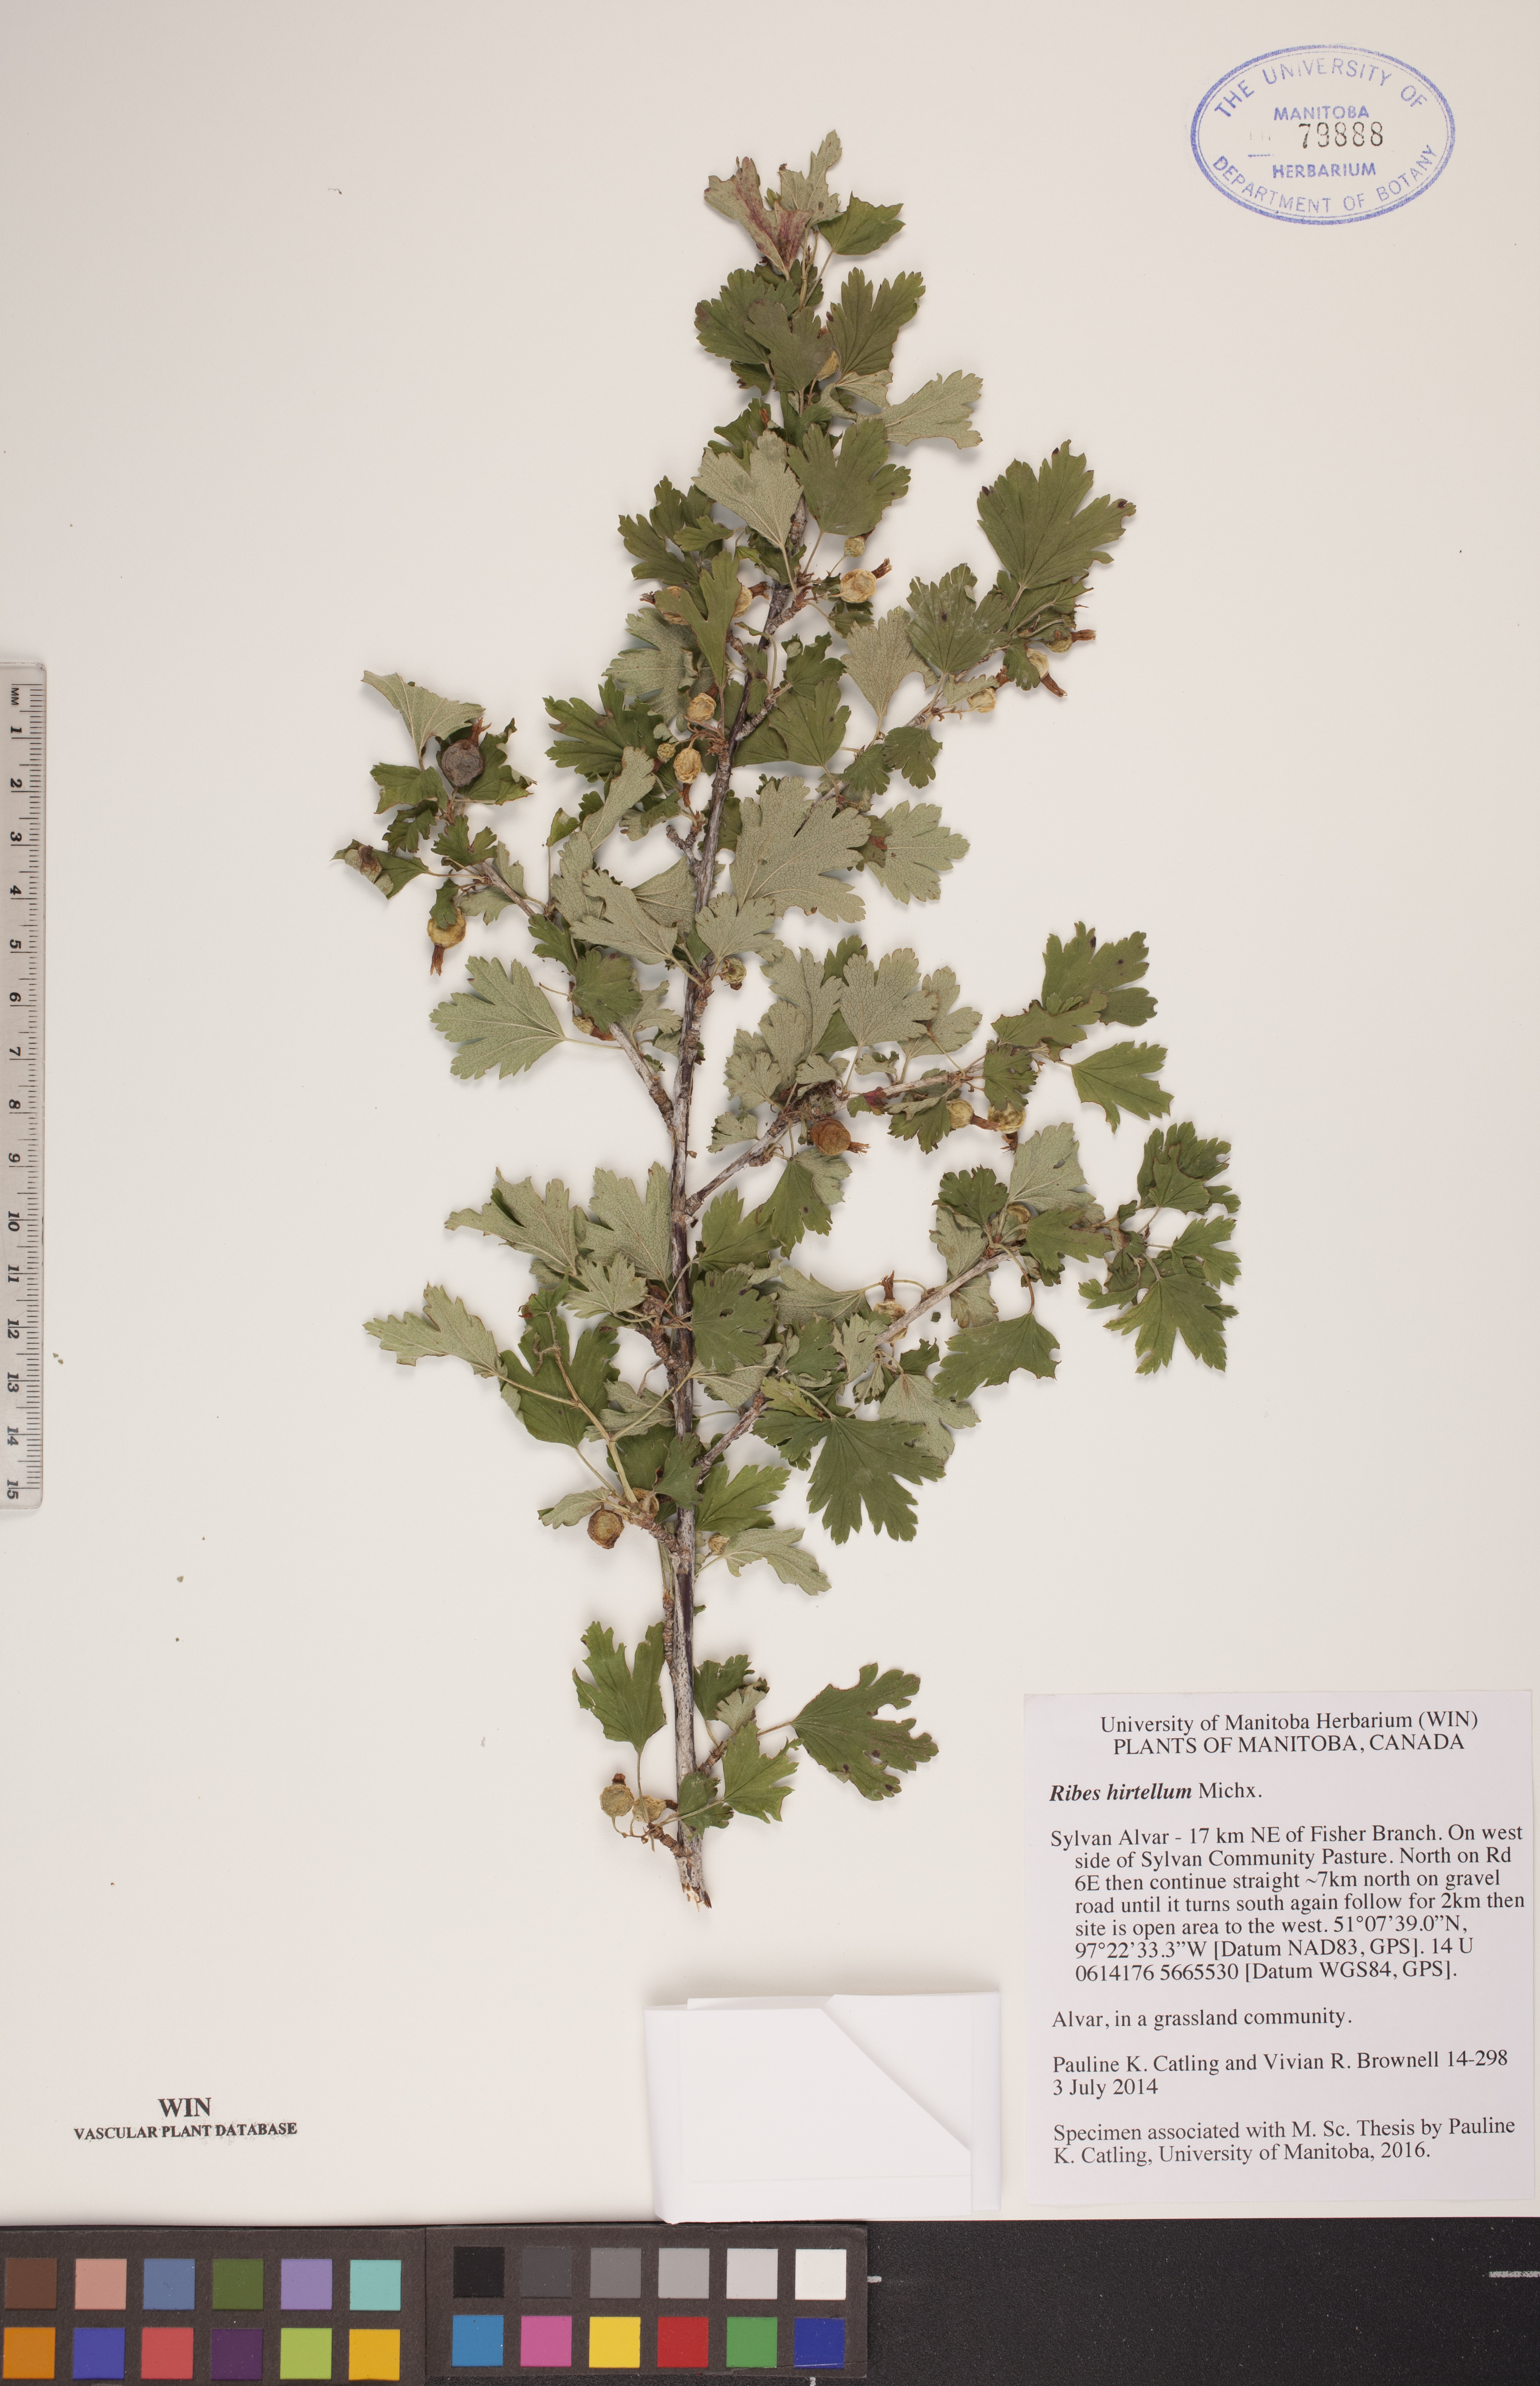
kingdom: Plantae
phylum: Tracheophyta
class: Magnoliopsida
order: Saxifragales
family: Grossulariaceae
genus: Ribes
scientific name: Ribes hirtellum
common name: Hairy gooseberry
